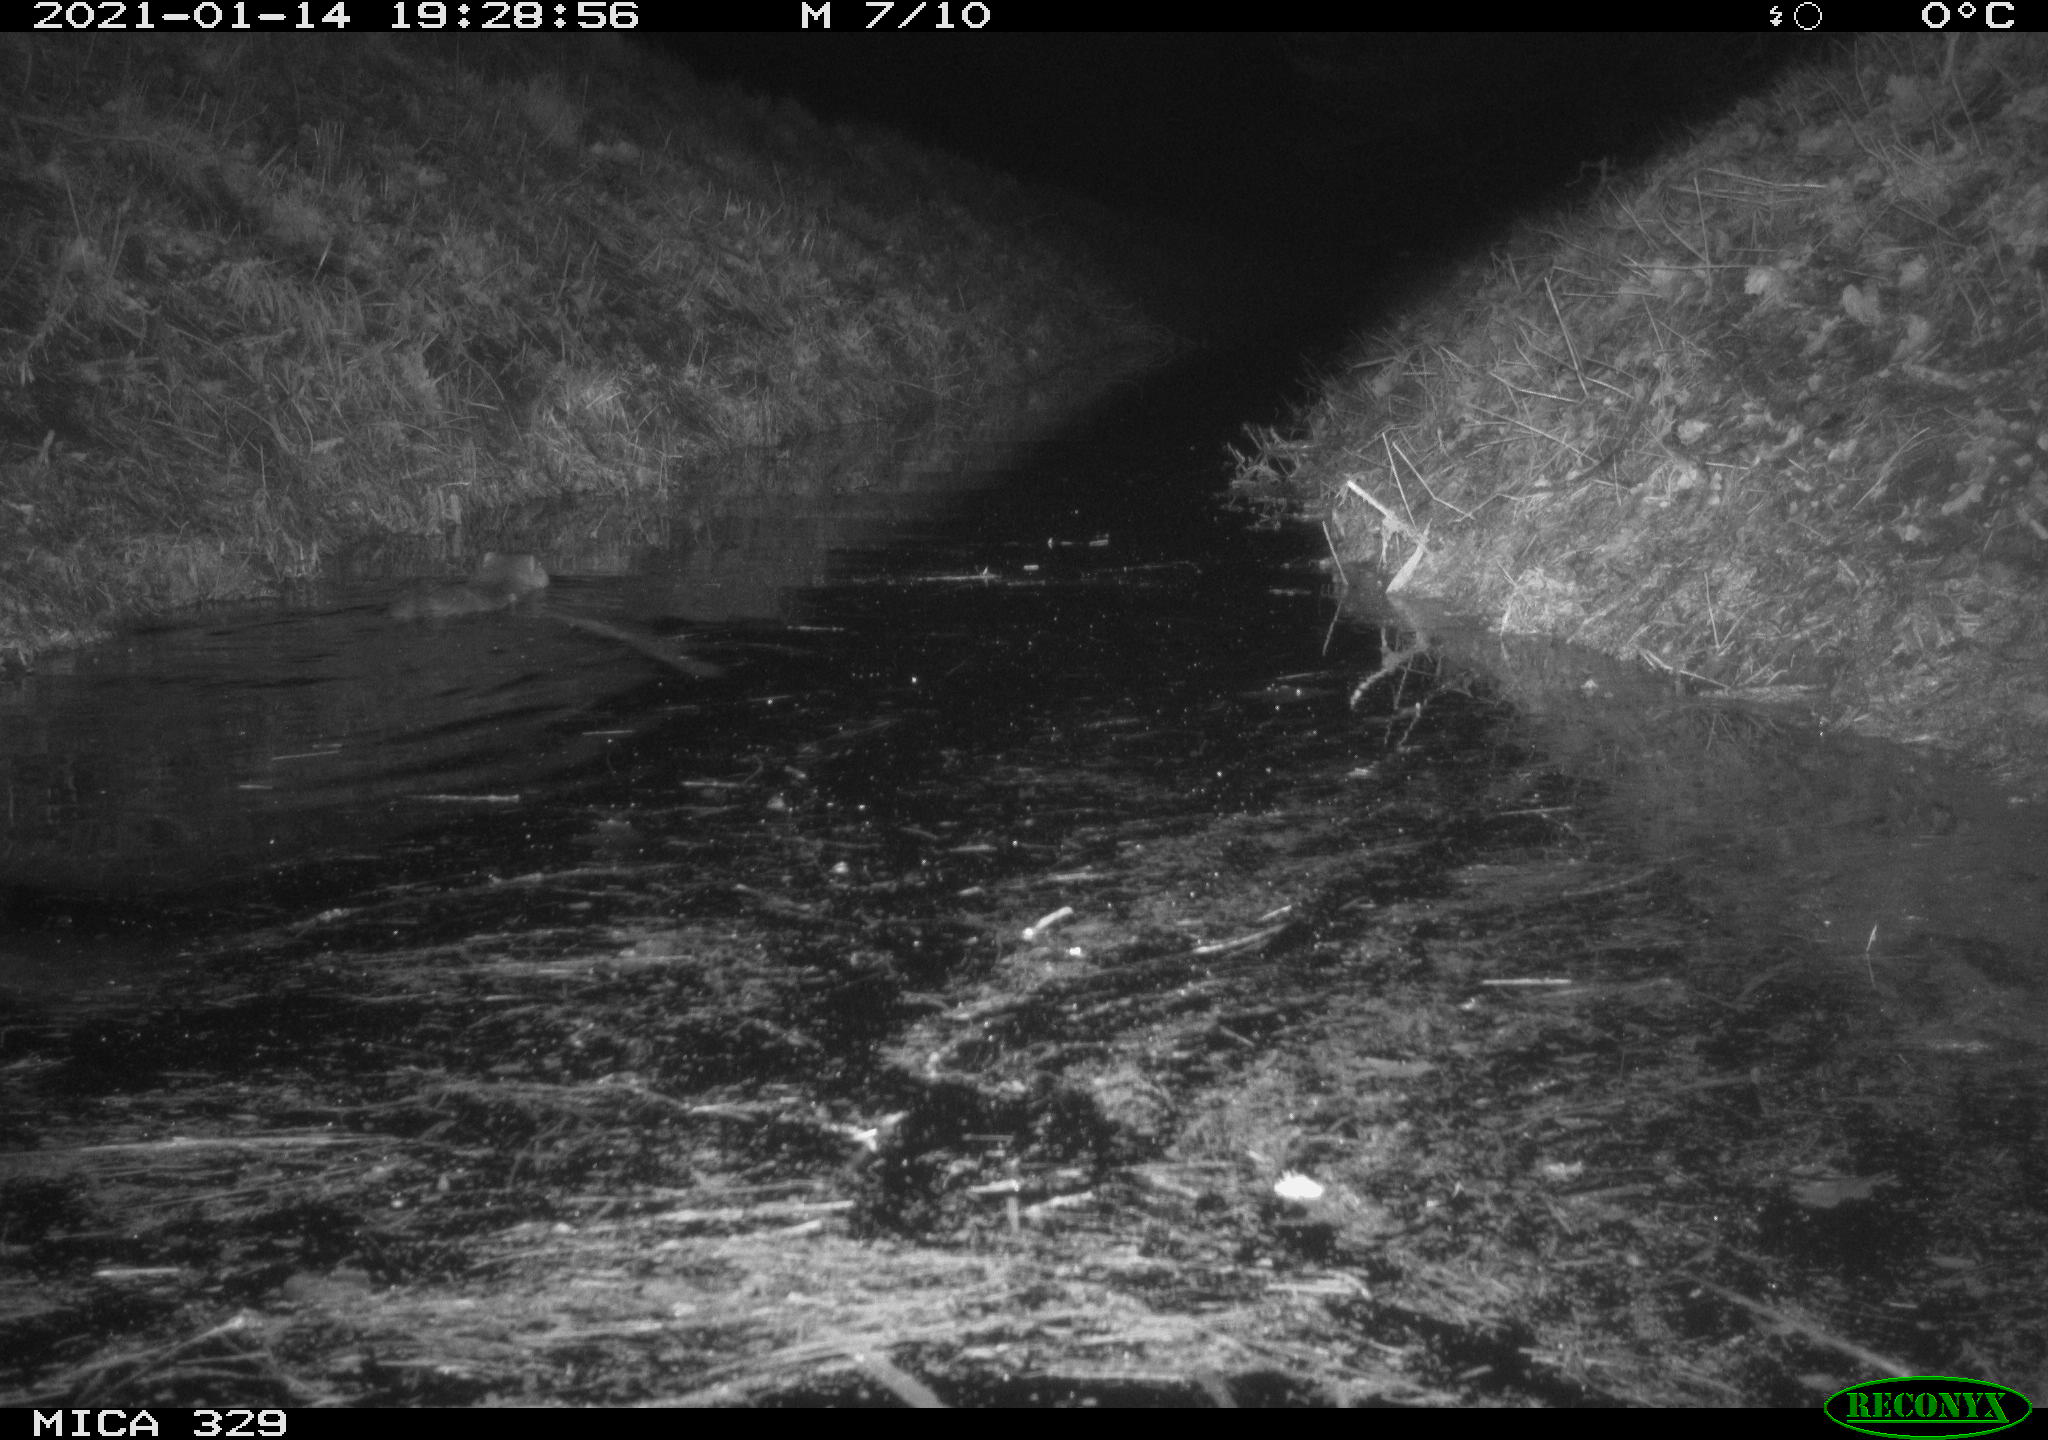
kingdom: Animalia
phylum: Chordata
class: Mammalia
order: Rodentia
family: Myocastoridae
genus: Myocastor
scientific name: Myocastor coypus
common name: Coypu
